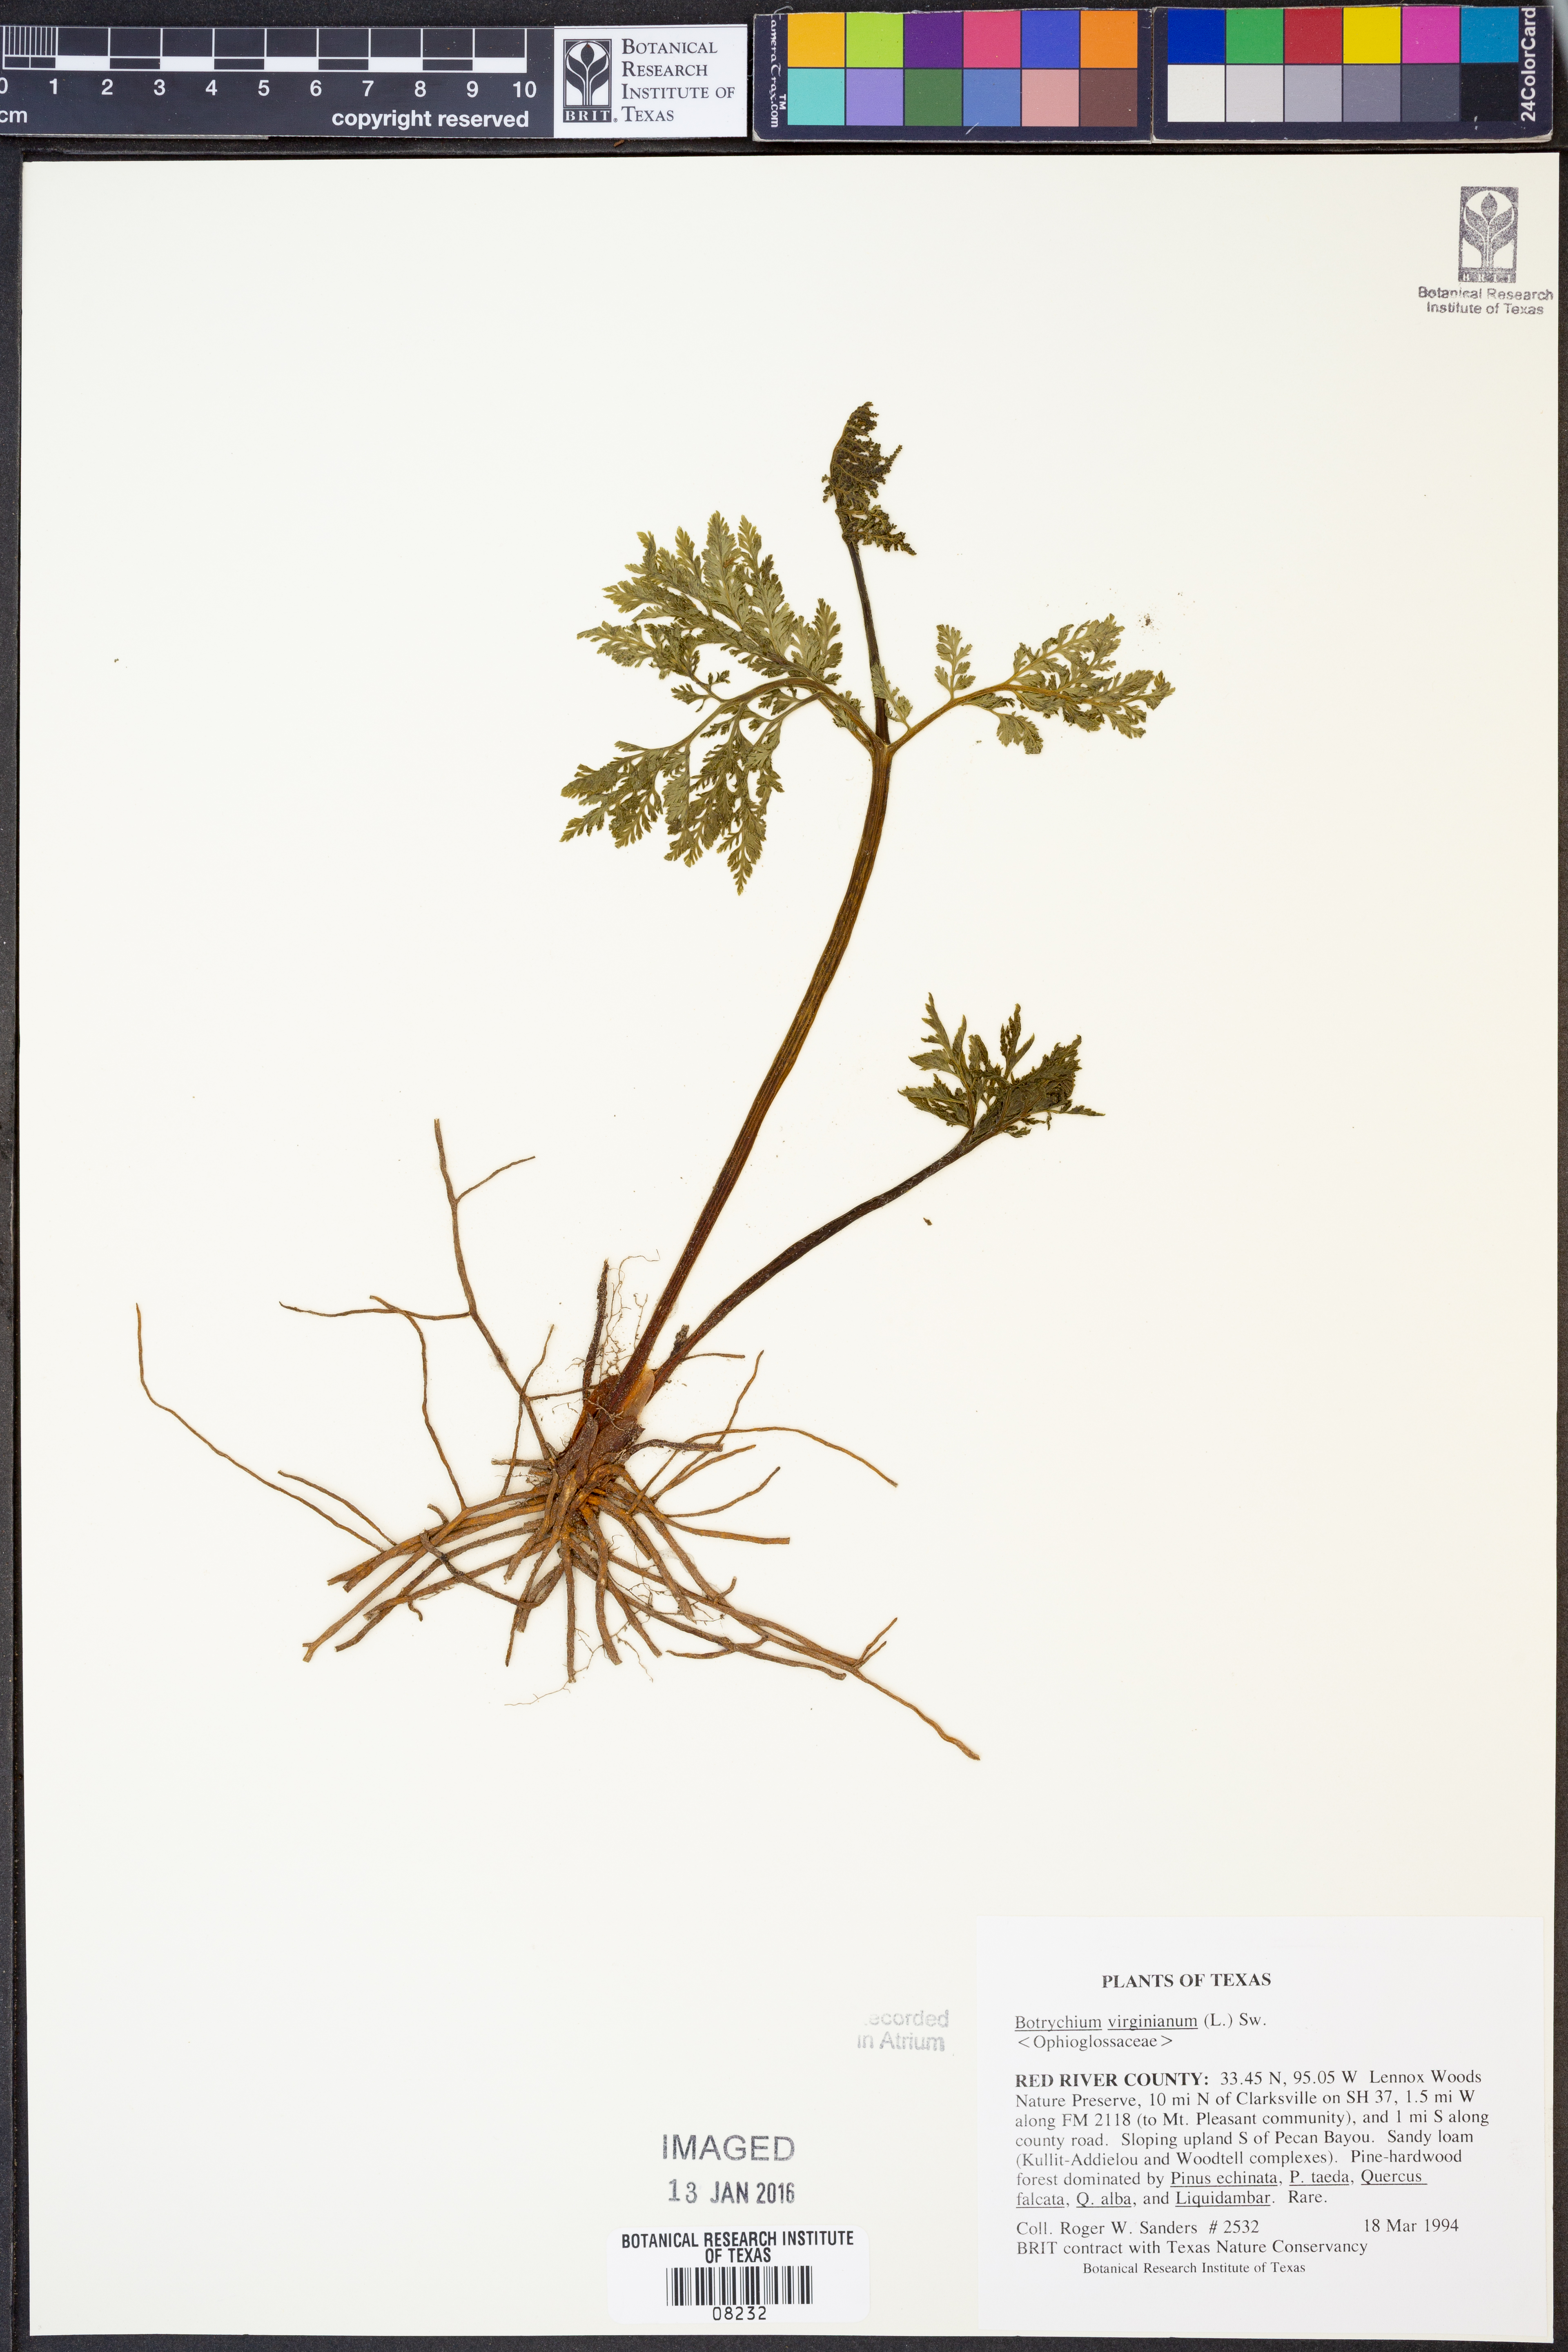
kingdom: Plantae
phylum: Tracheophyta
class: Polypodiopsida
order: Ophioglossales
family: Ophioglossaceae
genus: Botrypus
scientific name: Botrypus virginianus
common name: Common grapefern
